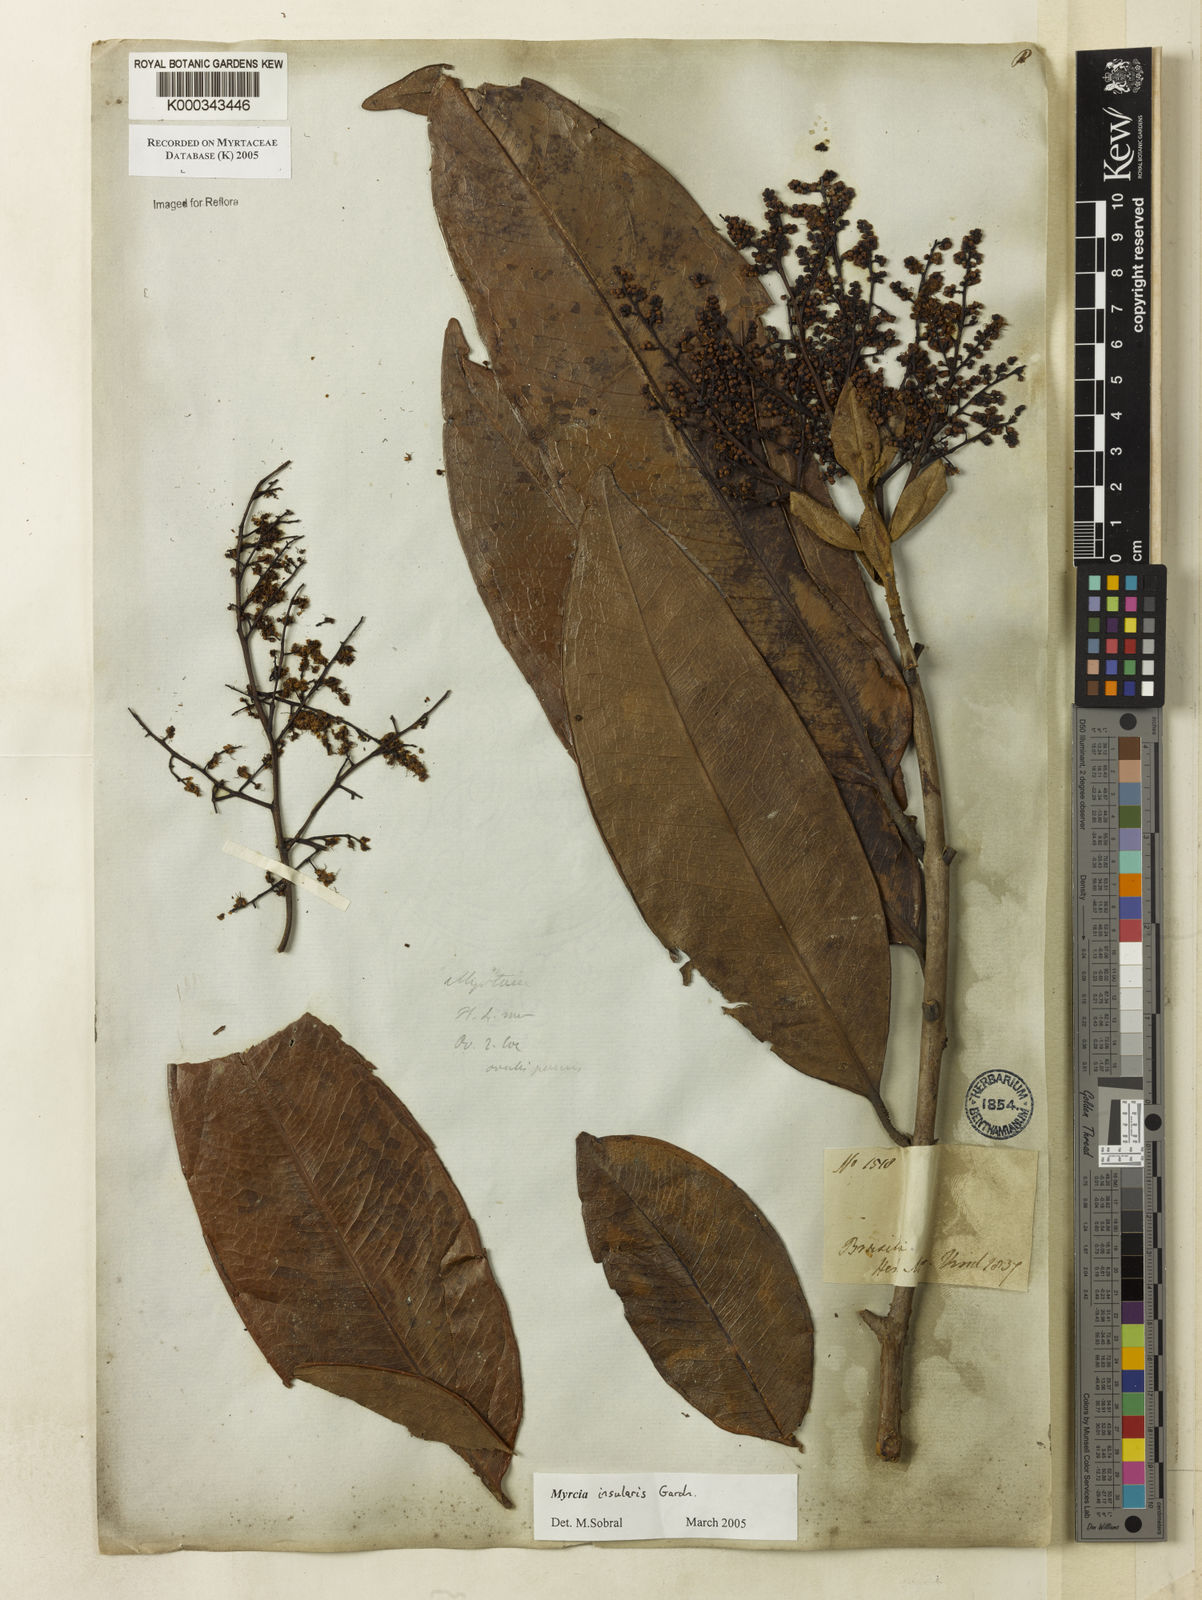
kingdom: Plantae
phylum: Tracheophyta
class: Magnoliopsida
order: Myrtales
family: Myrtaceae
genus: Myrcia
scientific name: Myrcia insularis
